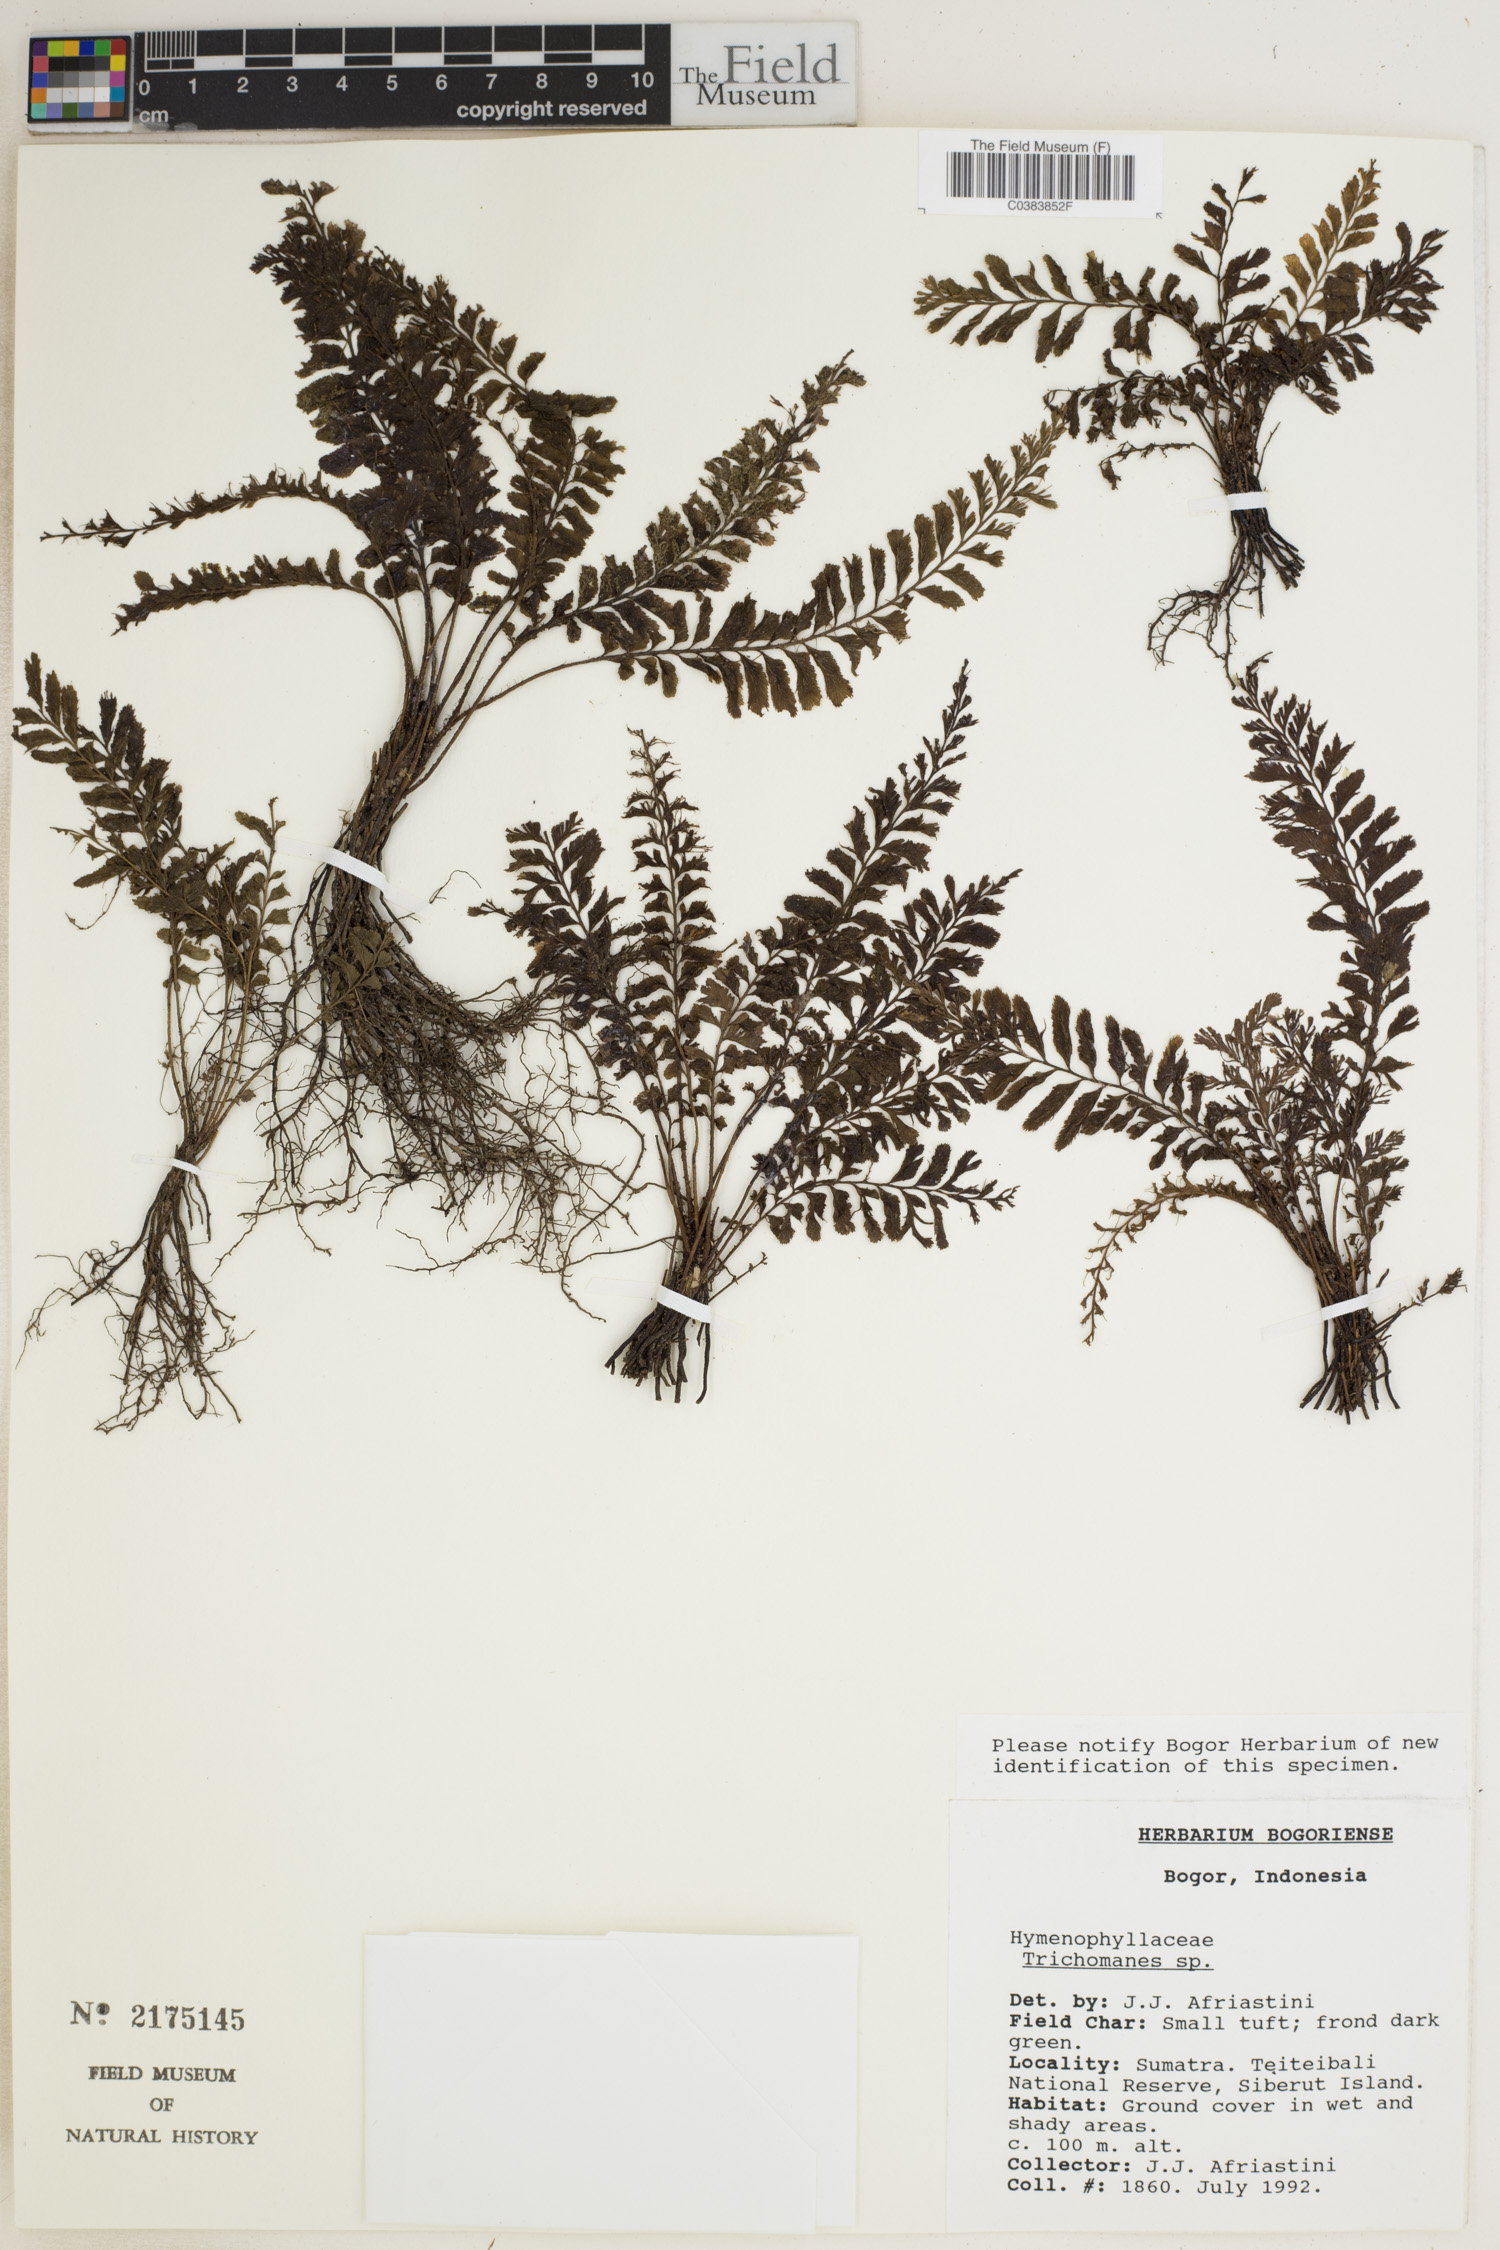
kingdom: Plantae
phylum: Tracheophyta
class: Polypodiopsida
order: Hymenophyllales
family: Hymenophyllaceae
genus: Trichomanes
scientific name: Trichomanes
